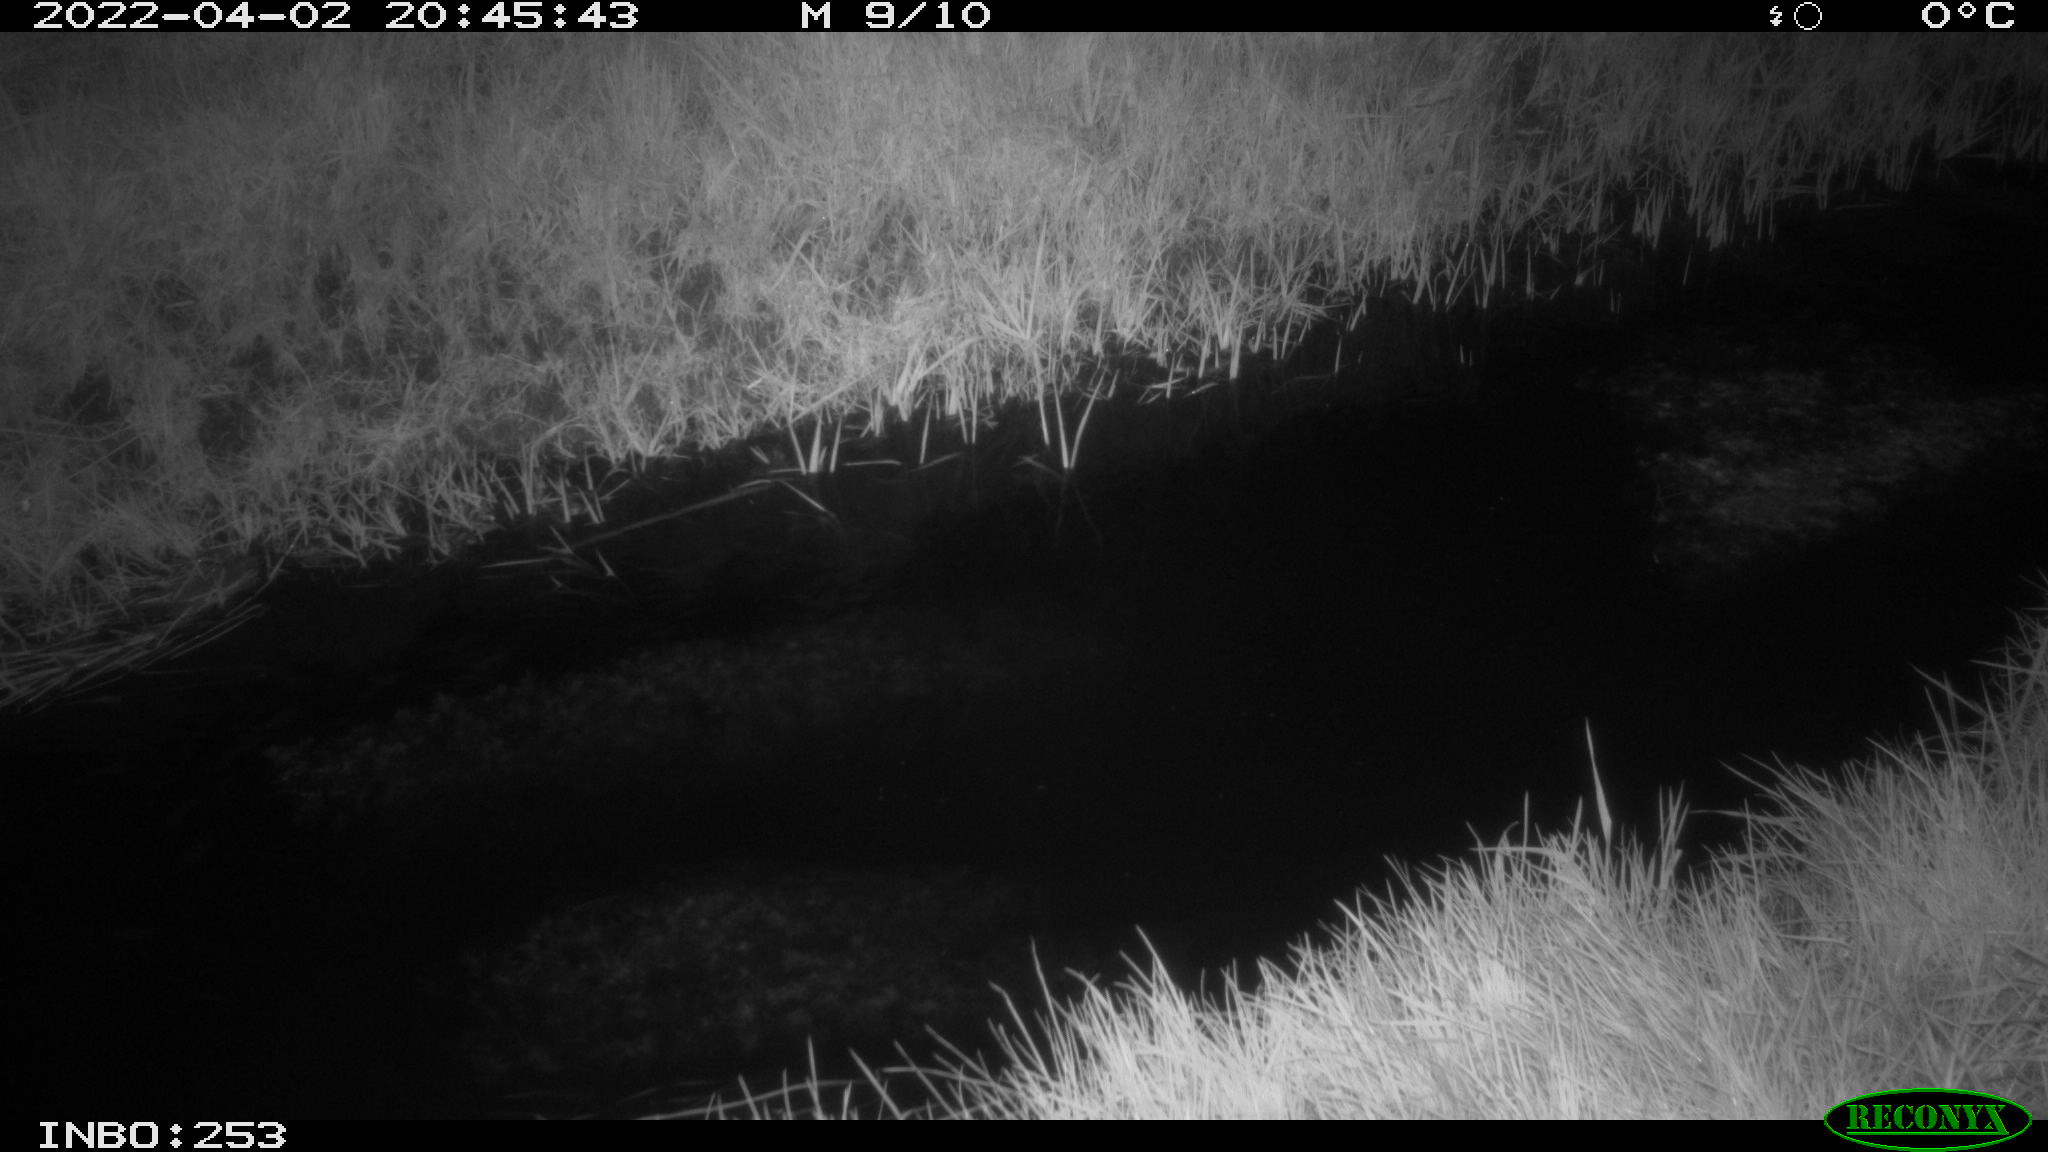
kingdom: Animalia
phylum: Chordata
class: Aves
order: Anseriformes
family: Anatidae
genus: Anas
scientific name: Anas platyrhynchos
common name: Mallard
